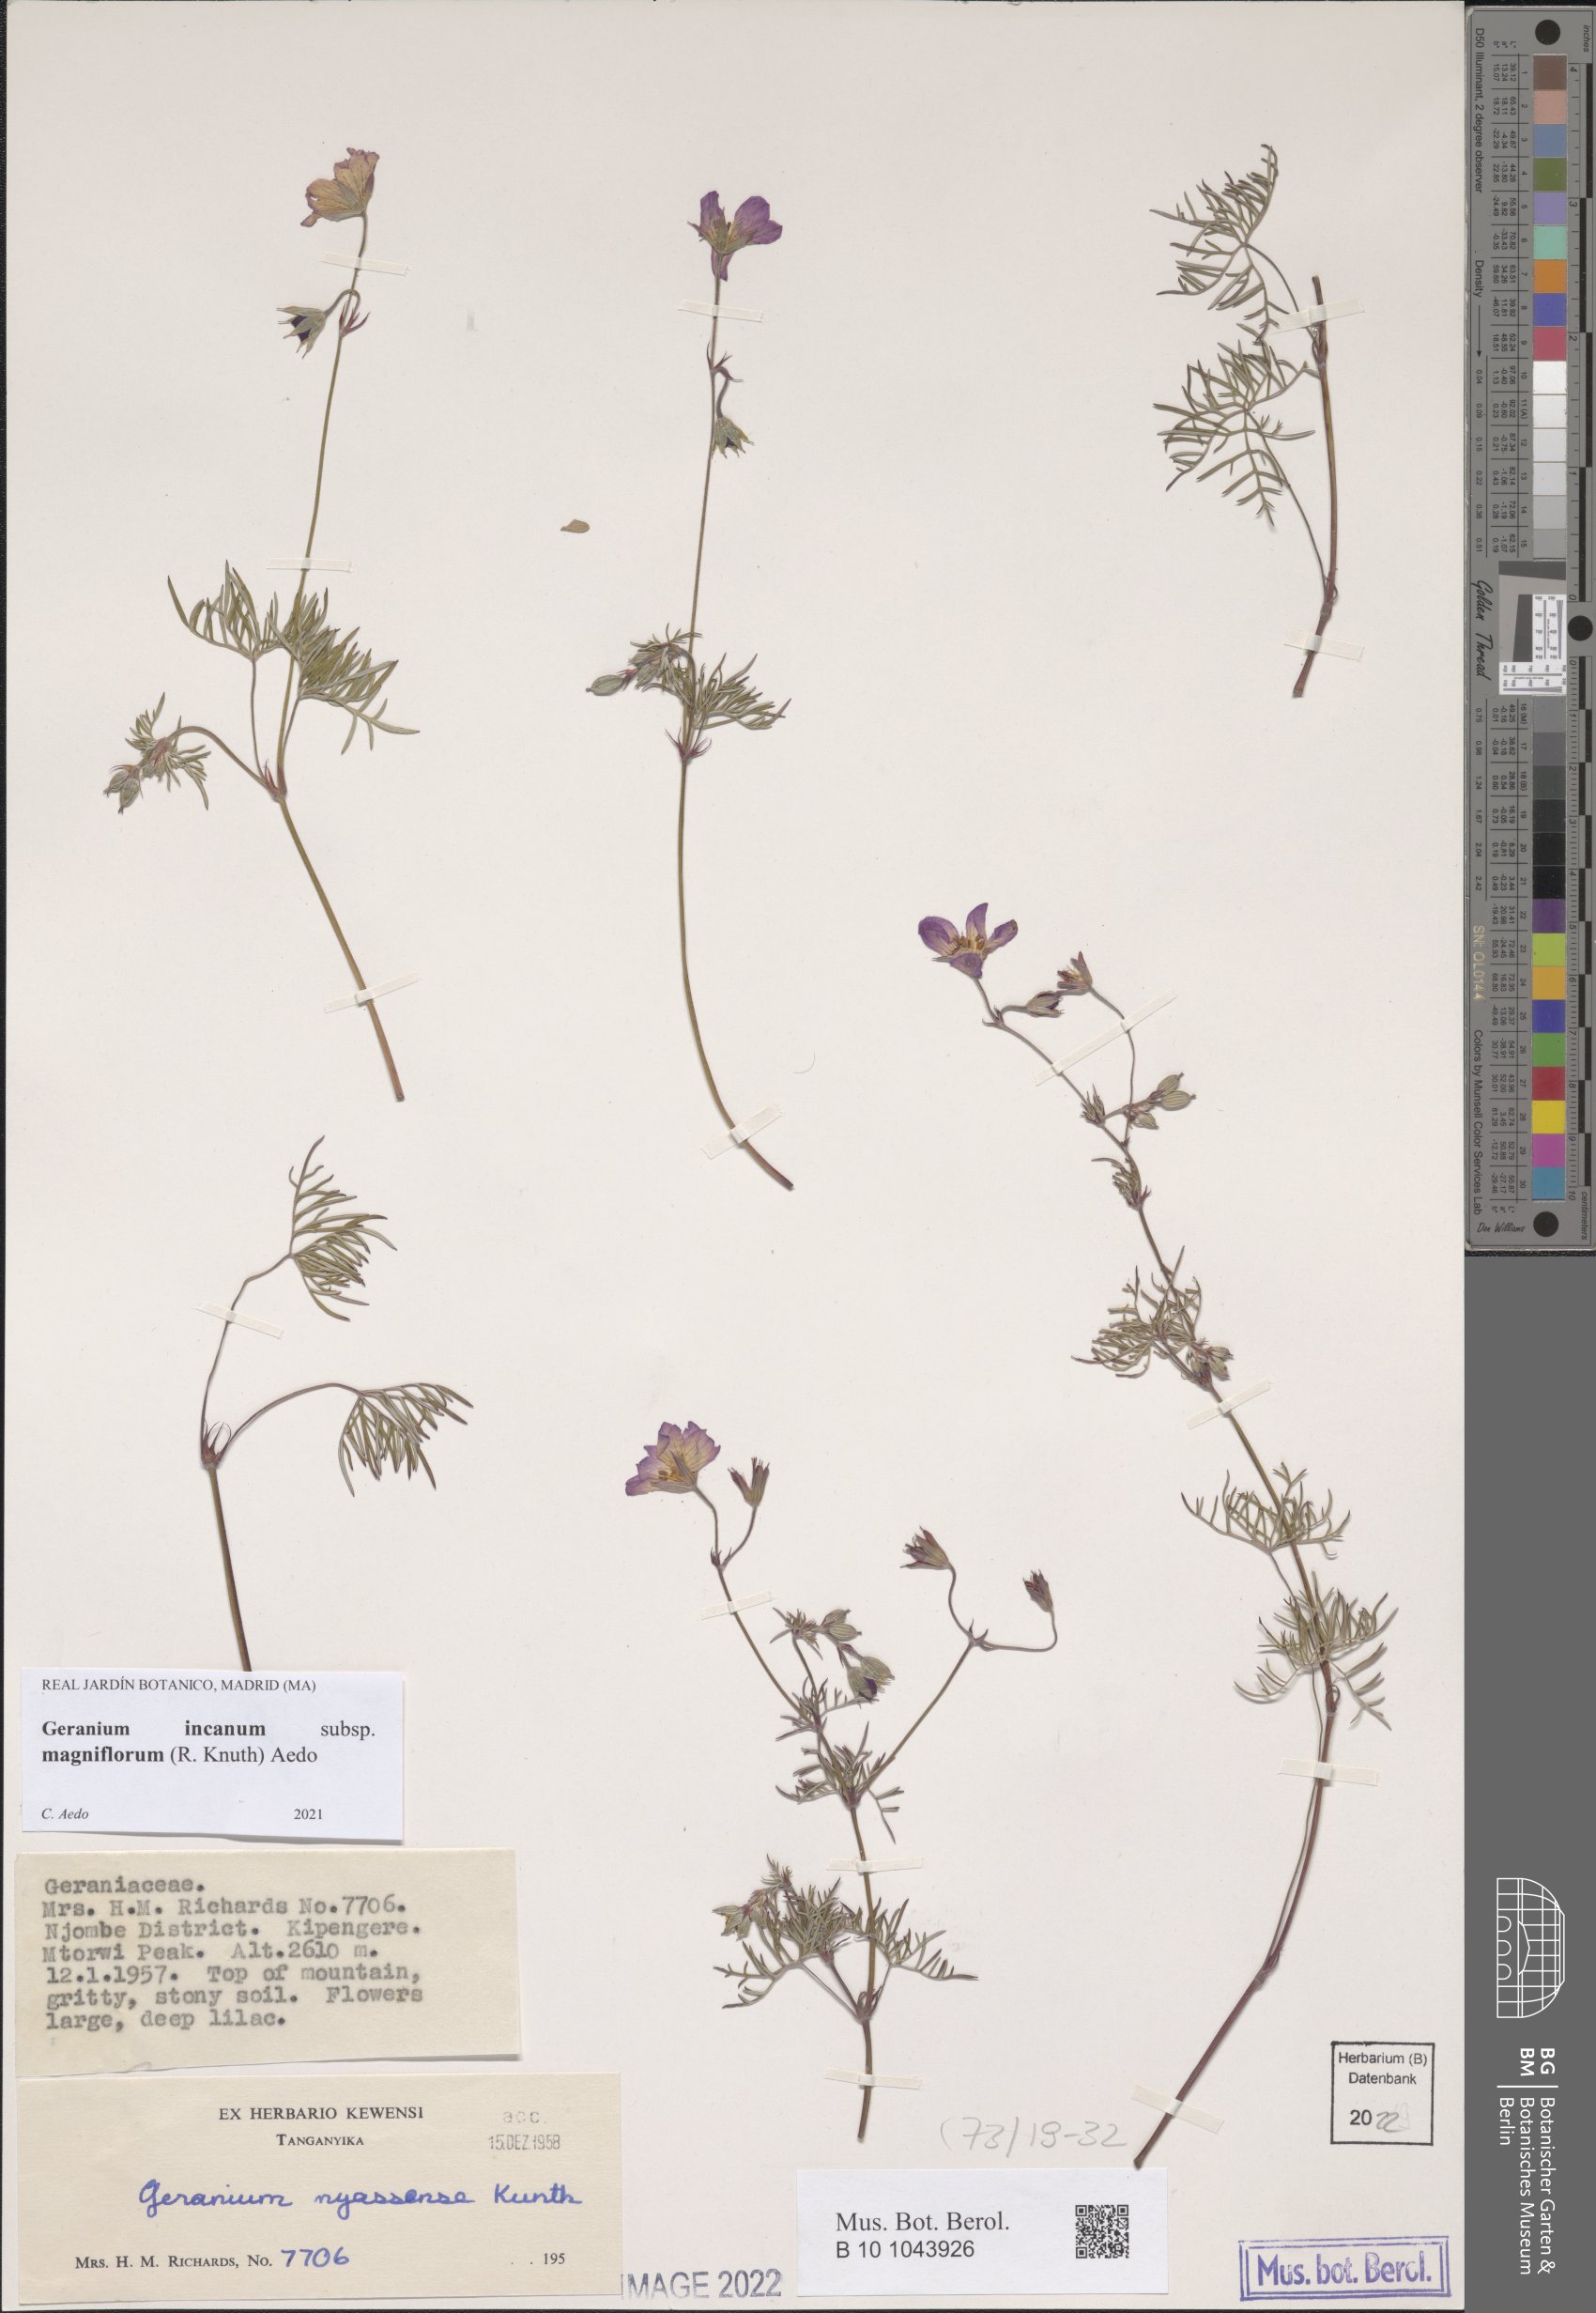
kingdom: Plantae
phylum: Tracheophyta
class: Magnoliopsida
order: Geraniales
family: Geraniaceae
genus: Geranium
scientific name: Geranium incanum
